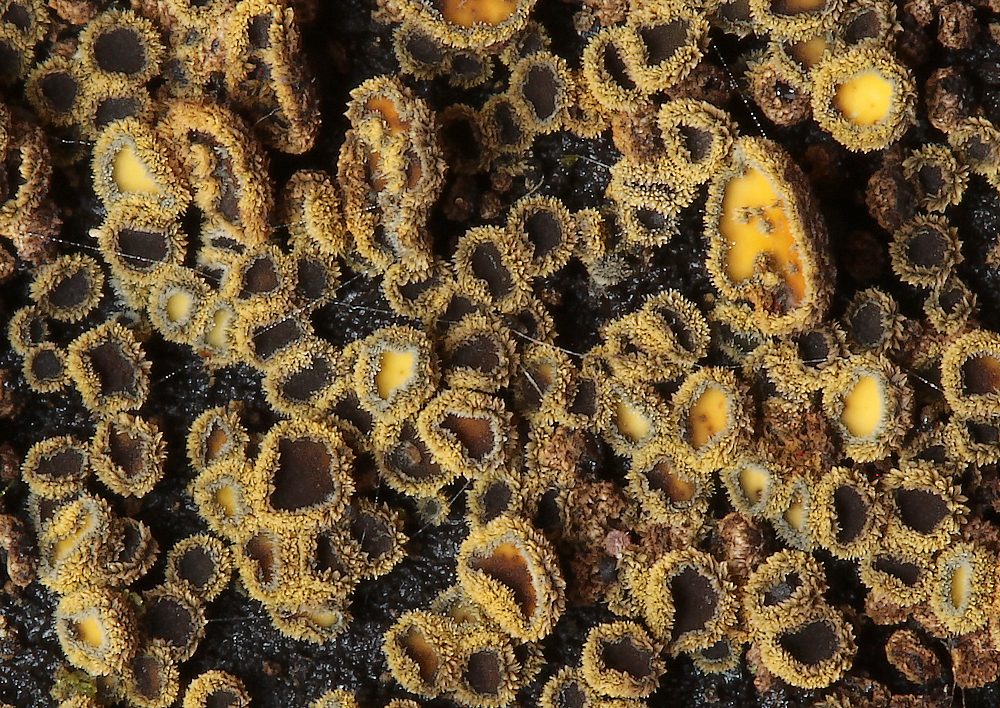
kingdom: Fungi
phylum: Ascomycota
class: Leotiomycetes
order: Helotiales
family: Lachnaceae
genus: Neodasyscypha
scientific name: Neodasyscypha cerina
